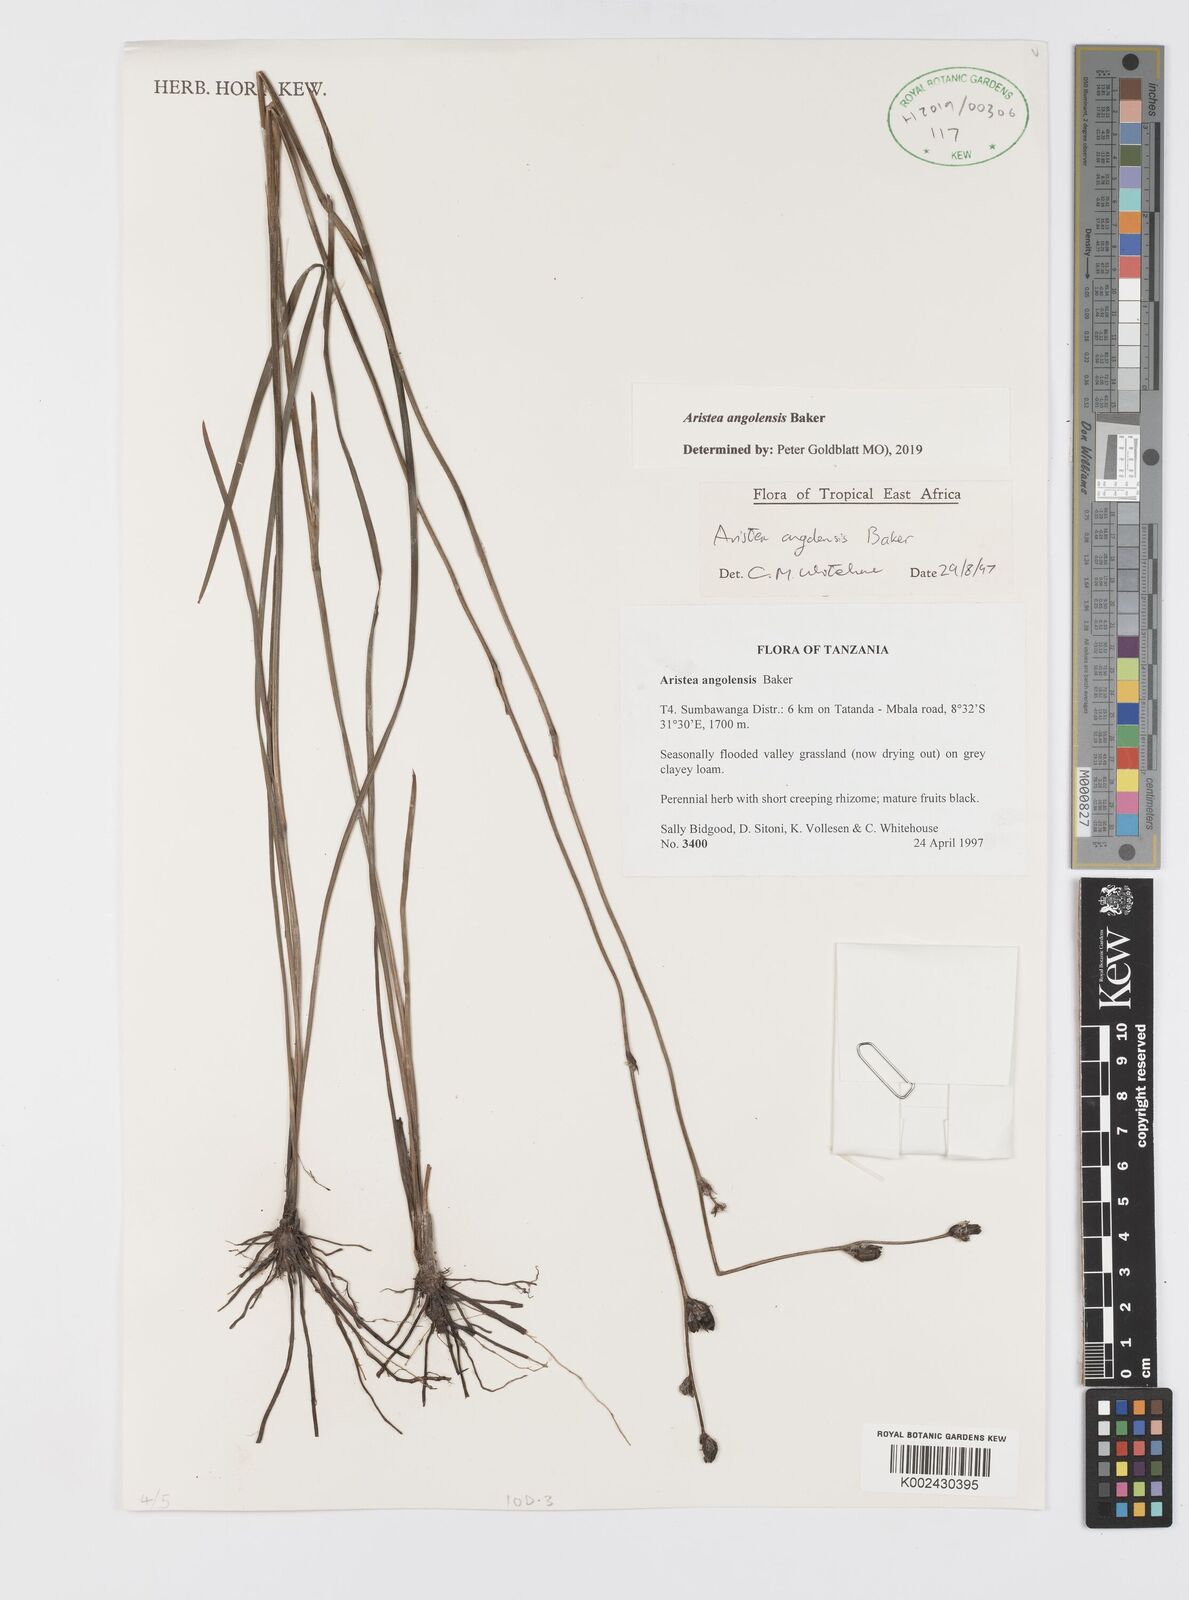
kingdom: Plantae
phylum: Tracheophyta
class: Liliopsida
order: Asparagales
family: Iridaceae
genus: Aristea
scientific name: Aristea angolensis
